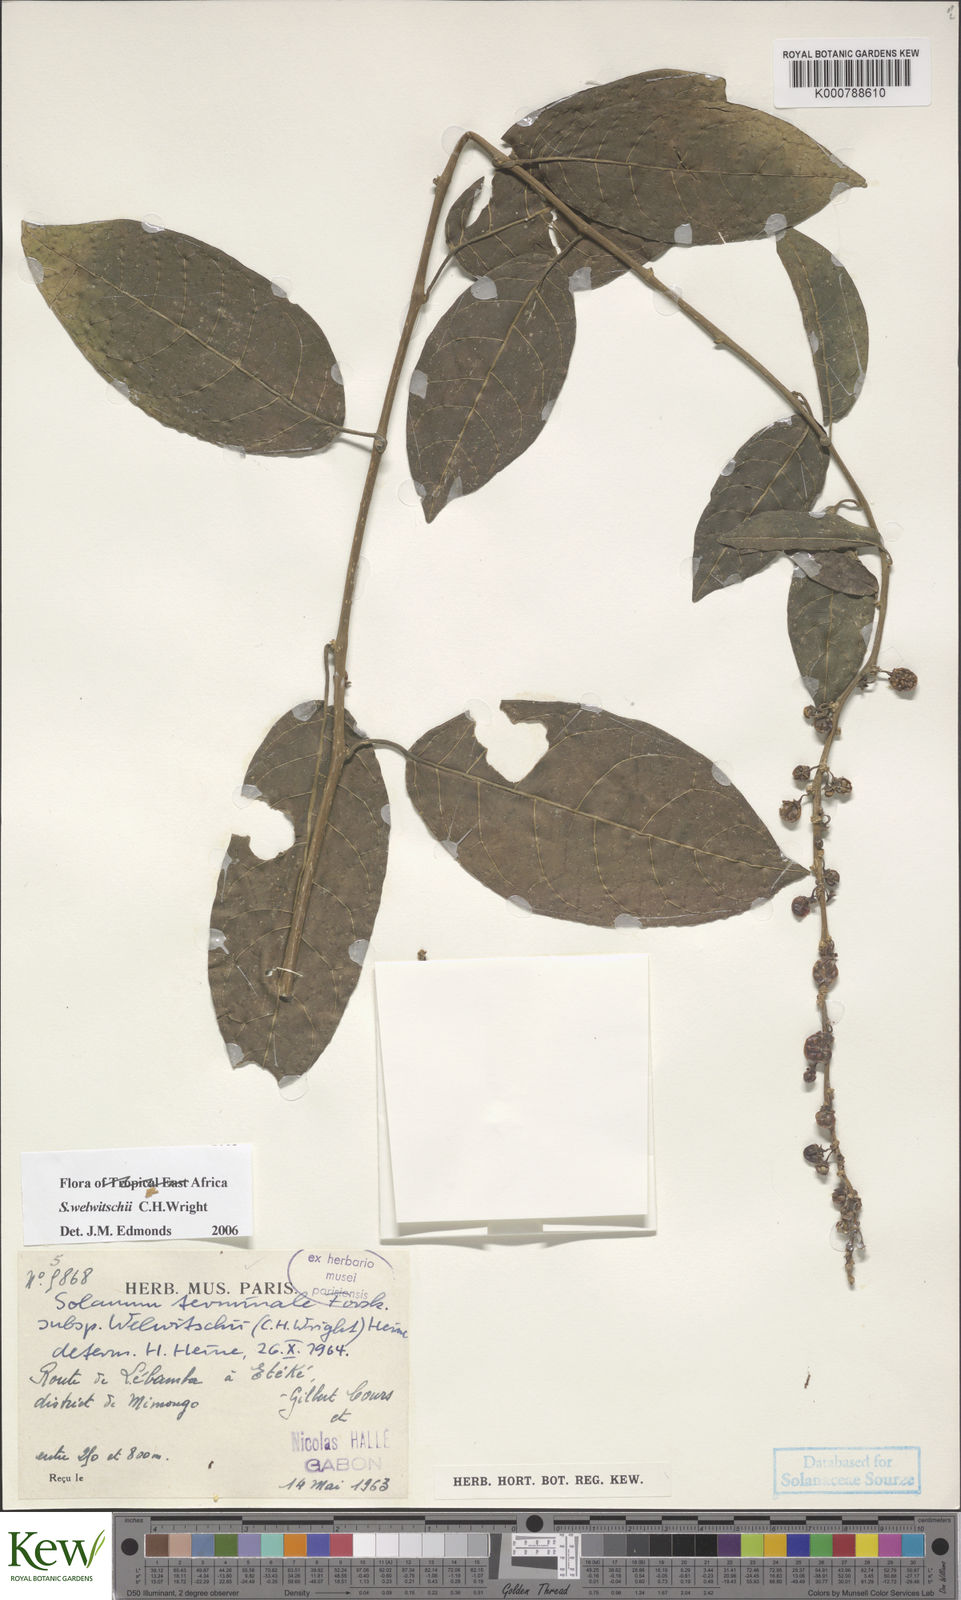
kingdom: Plantae
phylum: Tracheophyta
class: Magnoliopsida
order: Solanales
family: Solanaceae
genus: Solanum
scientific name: Solanum terminale
